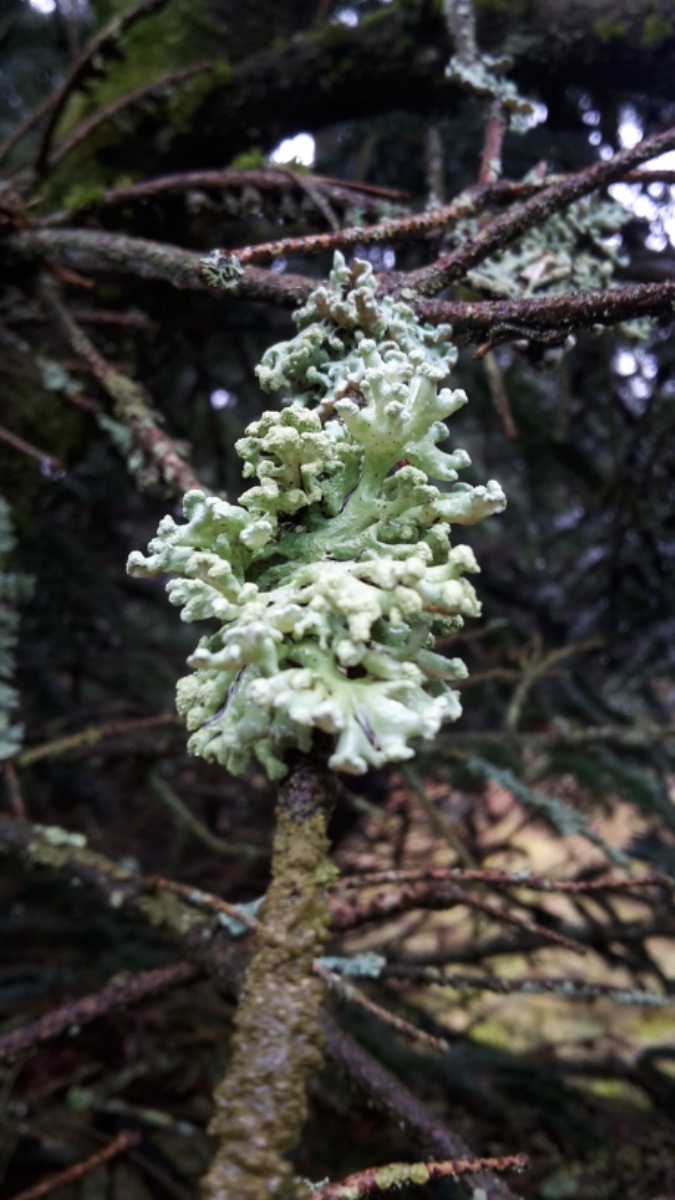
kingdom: Fungi
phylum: Ascomycota
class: Lecanoromycetes
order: Lecanorales
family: Parmeliaceae
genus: Hypogymnia
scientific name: Hypogymnia tubulosa
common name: finger-kvistlav
